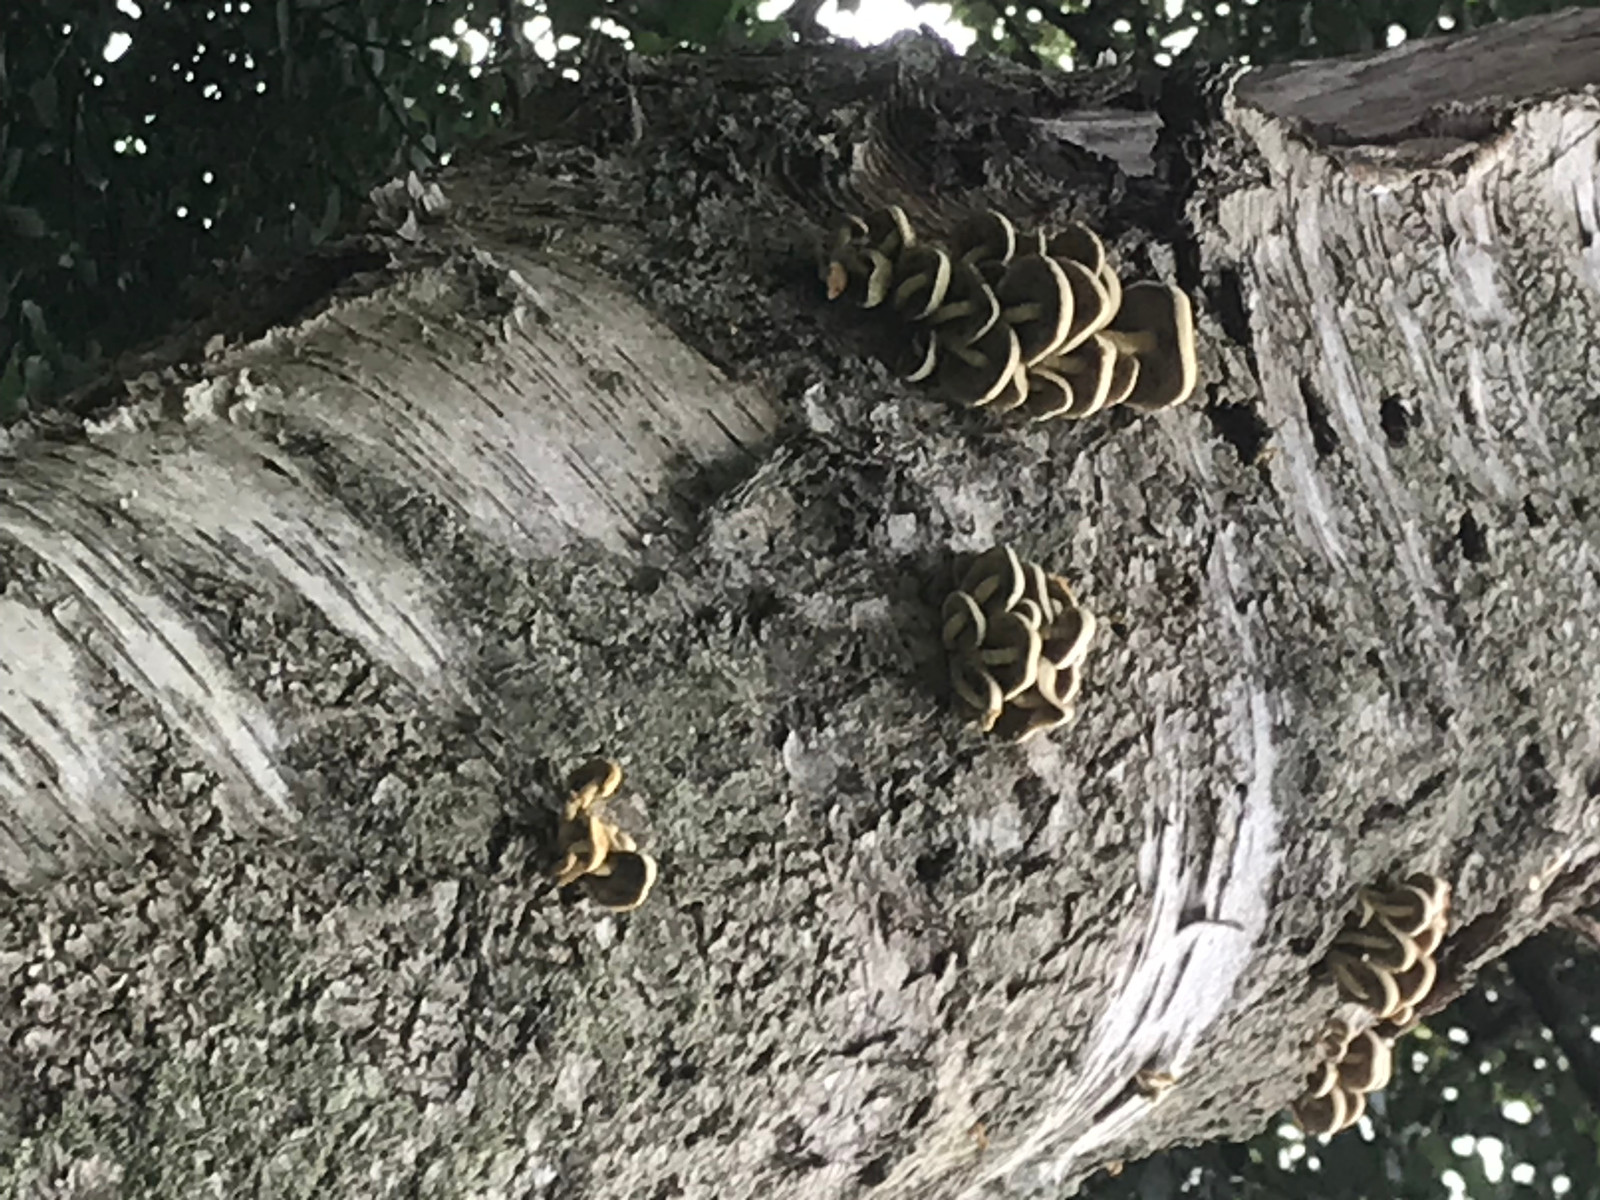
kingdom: Fungi
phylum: Basidiomycota
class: Agaricomycetes
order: Agaricales
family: Strophariaceae
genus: Hypholoma
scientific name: Hypholoma fasciculare
